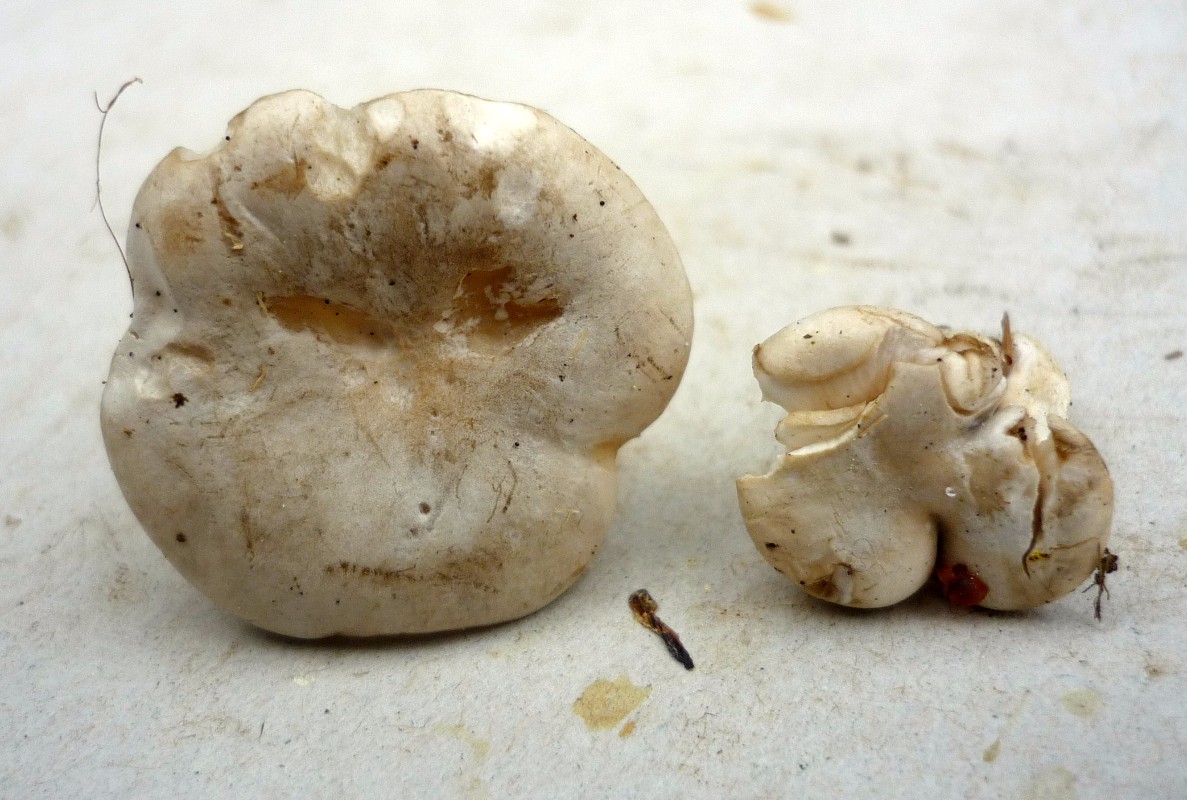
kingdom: Fungi
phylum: Basidiomycota
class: Agaricomycetes
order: Agaricales
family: Entolomataceae
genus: Clitopilus
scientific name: Clitopilus prunulus
